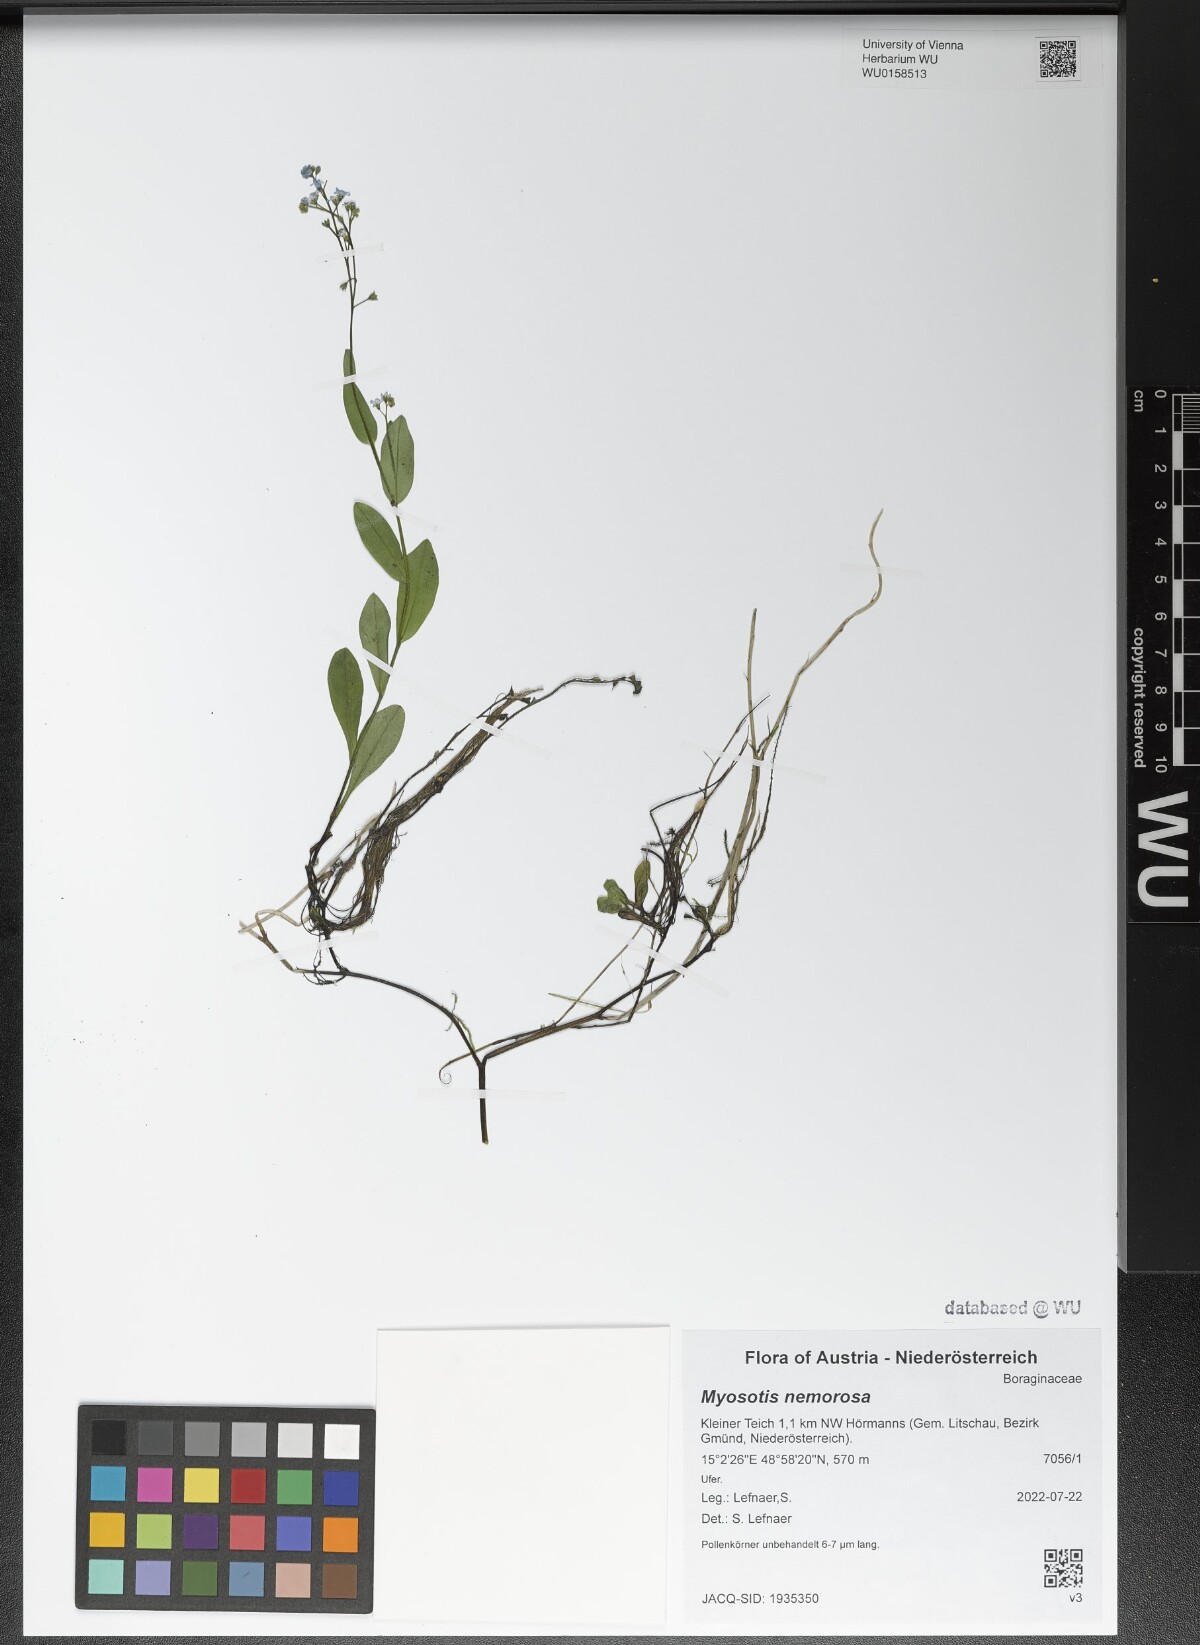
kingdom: Plantae
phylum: Tracheophyta
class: Magnoliopsida
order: Boraginales
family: Boraginaceae
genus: Myosotis
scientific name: Myosotis nemorosa
